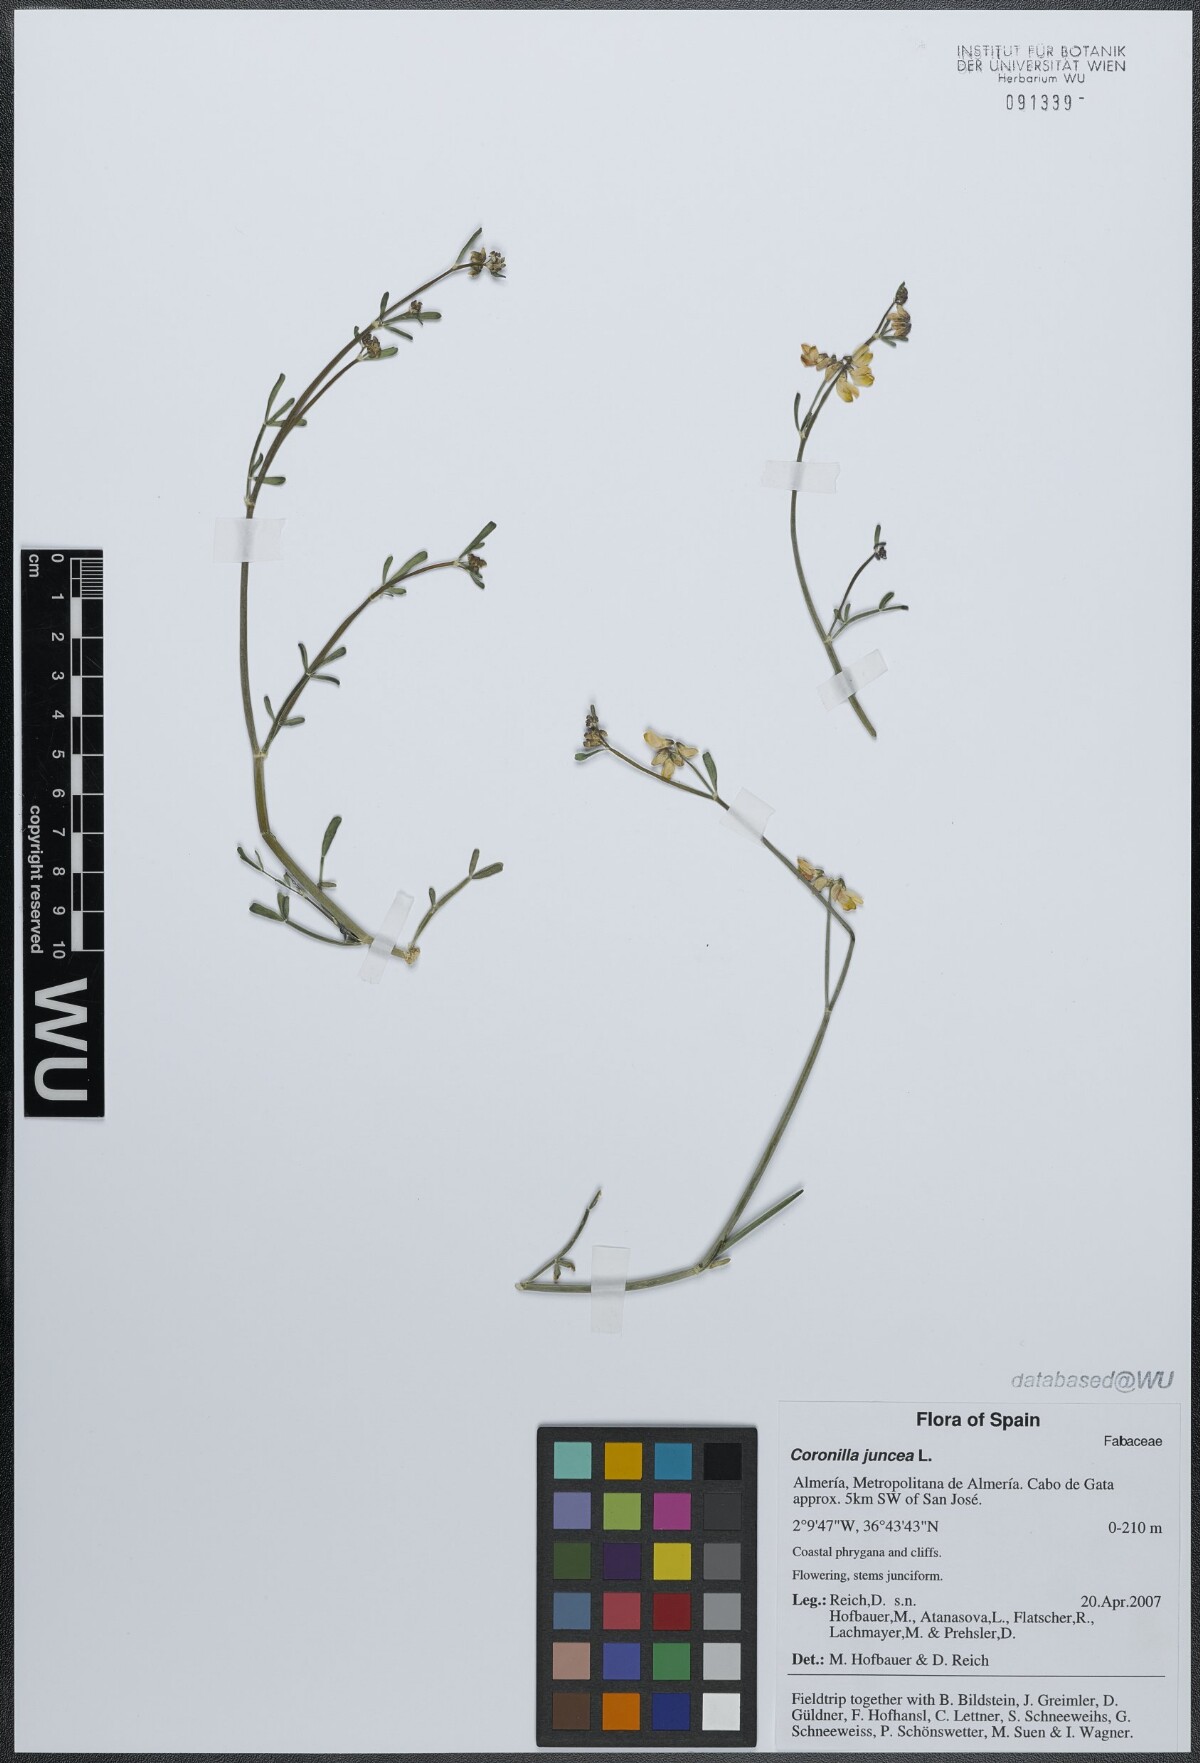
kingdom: Plantae
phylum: Tracheophyta
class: Magnoliopsida
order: Fabales
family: Fabaceae
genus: Coronilla
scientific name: Coronilla juncea
